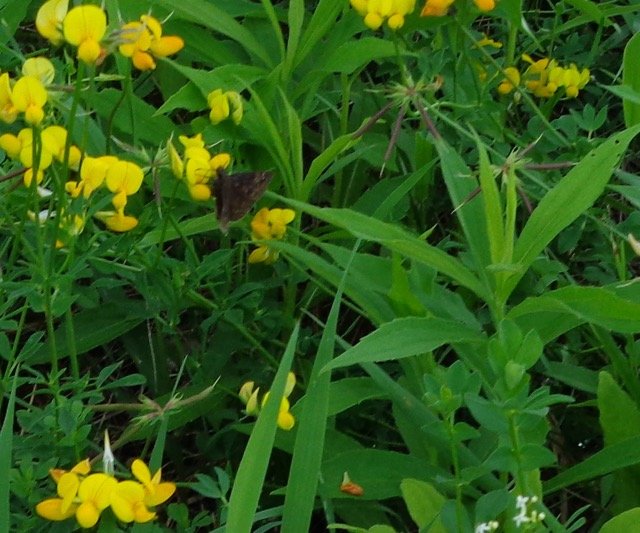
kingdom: Animalia
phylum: Arthropoda
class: Insecta
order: Lepidoptera
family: Hesperiidae
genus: Gesta
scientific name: Gesta
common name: Wild Indigo Duskywing
